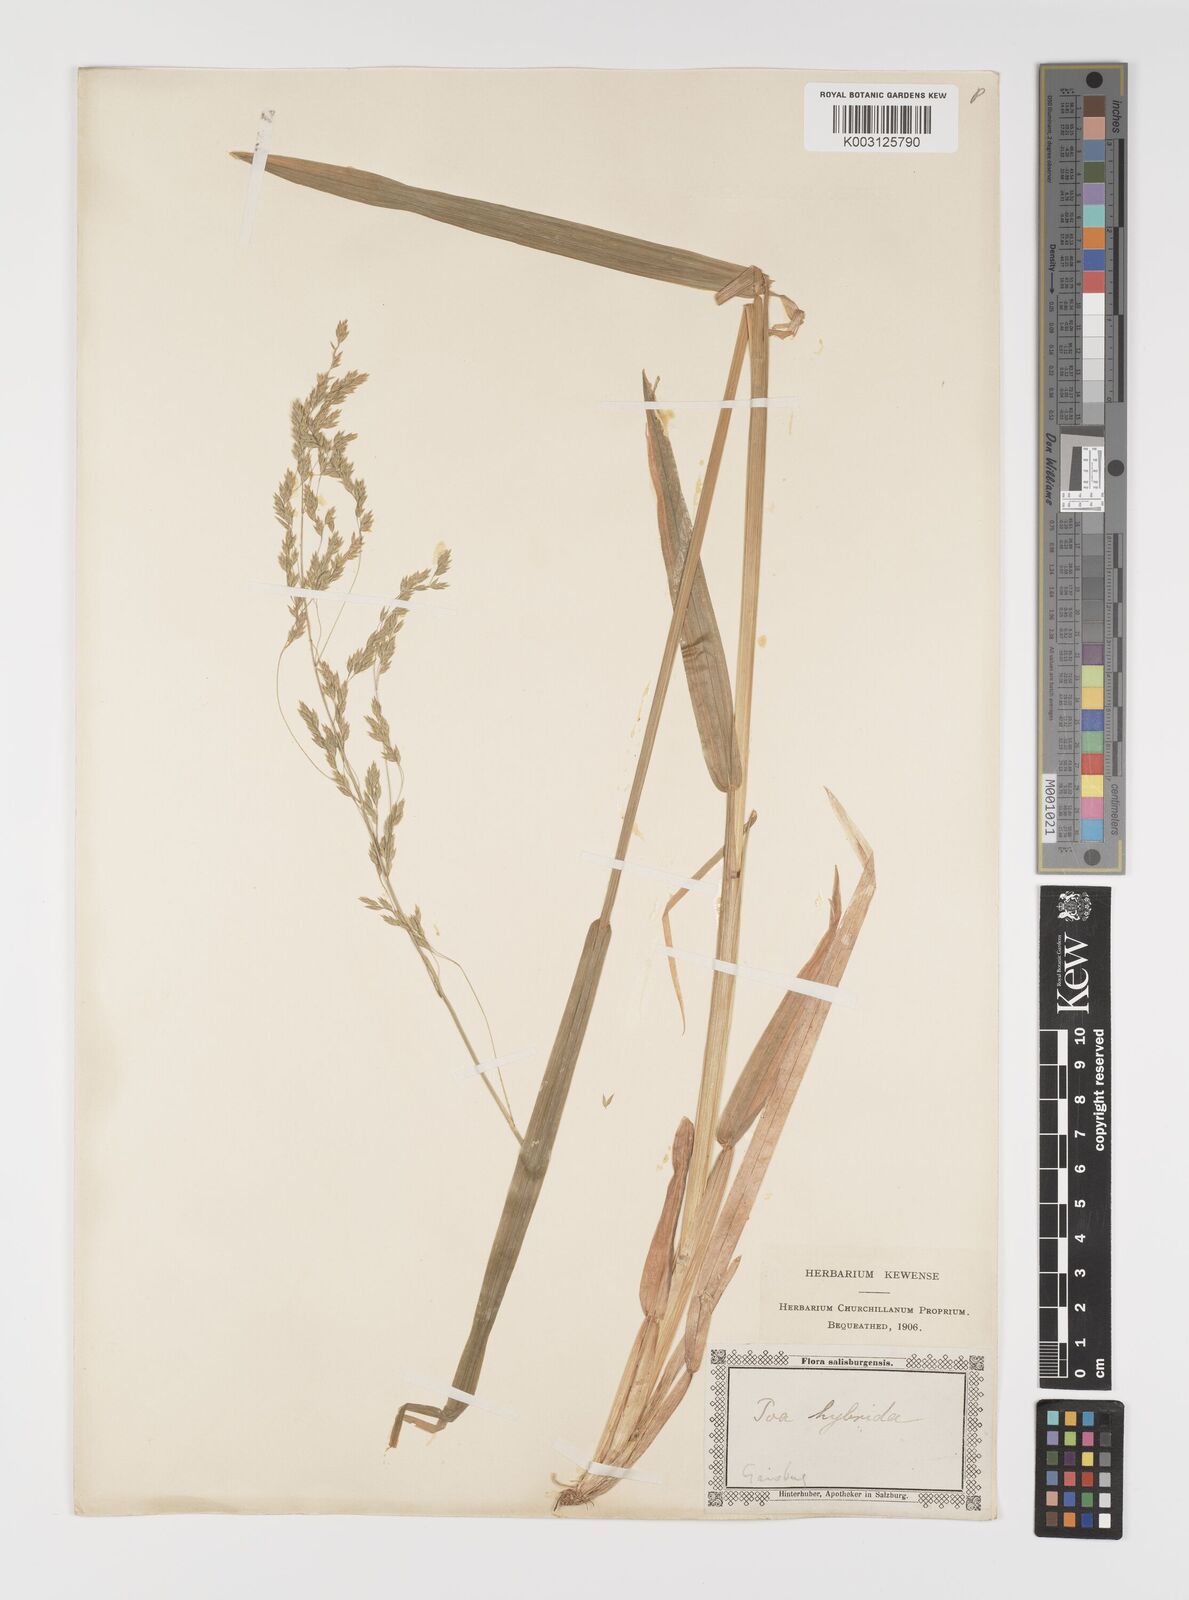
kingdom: Plantae
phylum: Tracheophyta
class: Liliopsida
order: Poales
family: Poaceae
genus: Poa
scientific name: Poa hybrida
